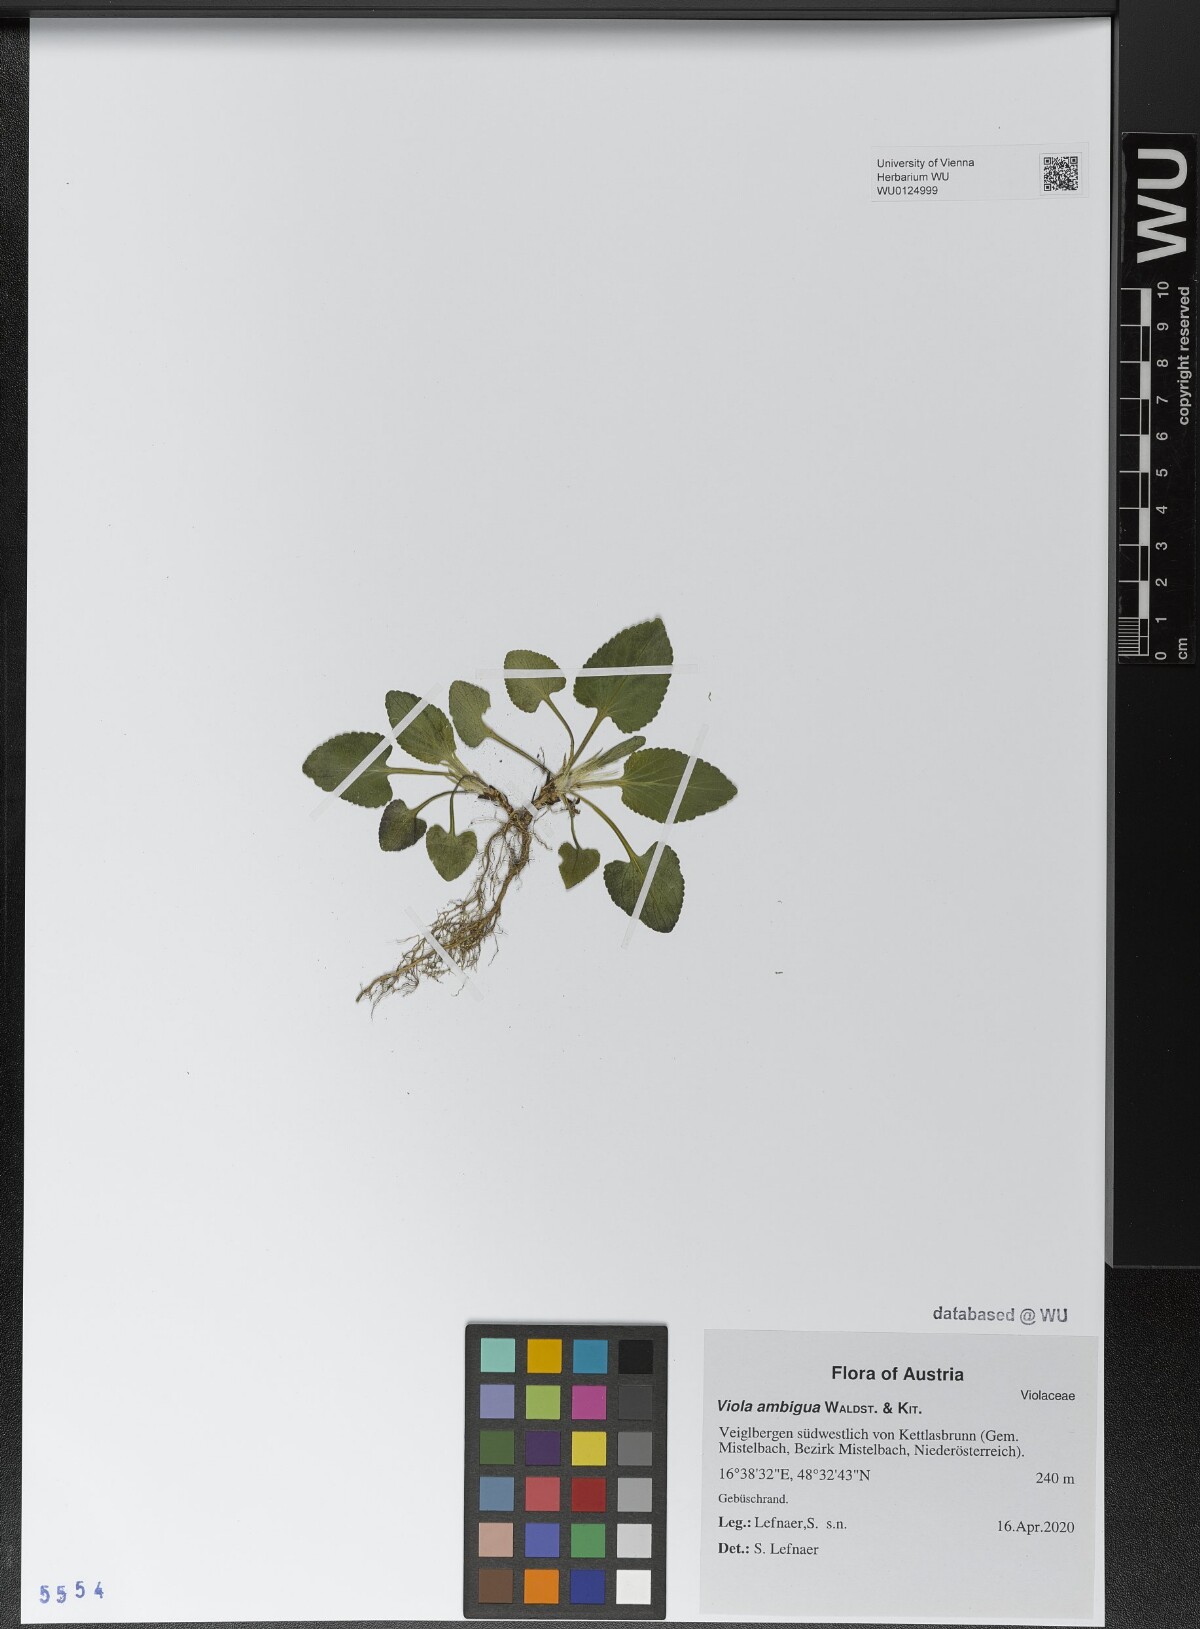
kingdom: Plantae
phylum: Tracheophyta
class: Magnoliopsida
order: Malpighiales
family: Violaceae
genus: Viola
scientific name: Viola ambigua
